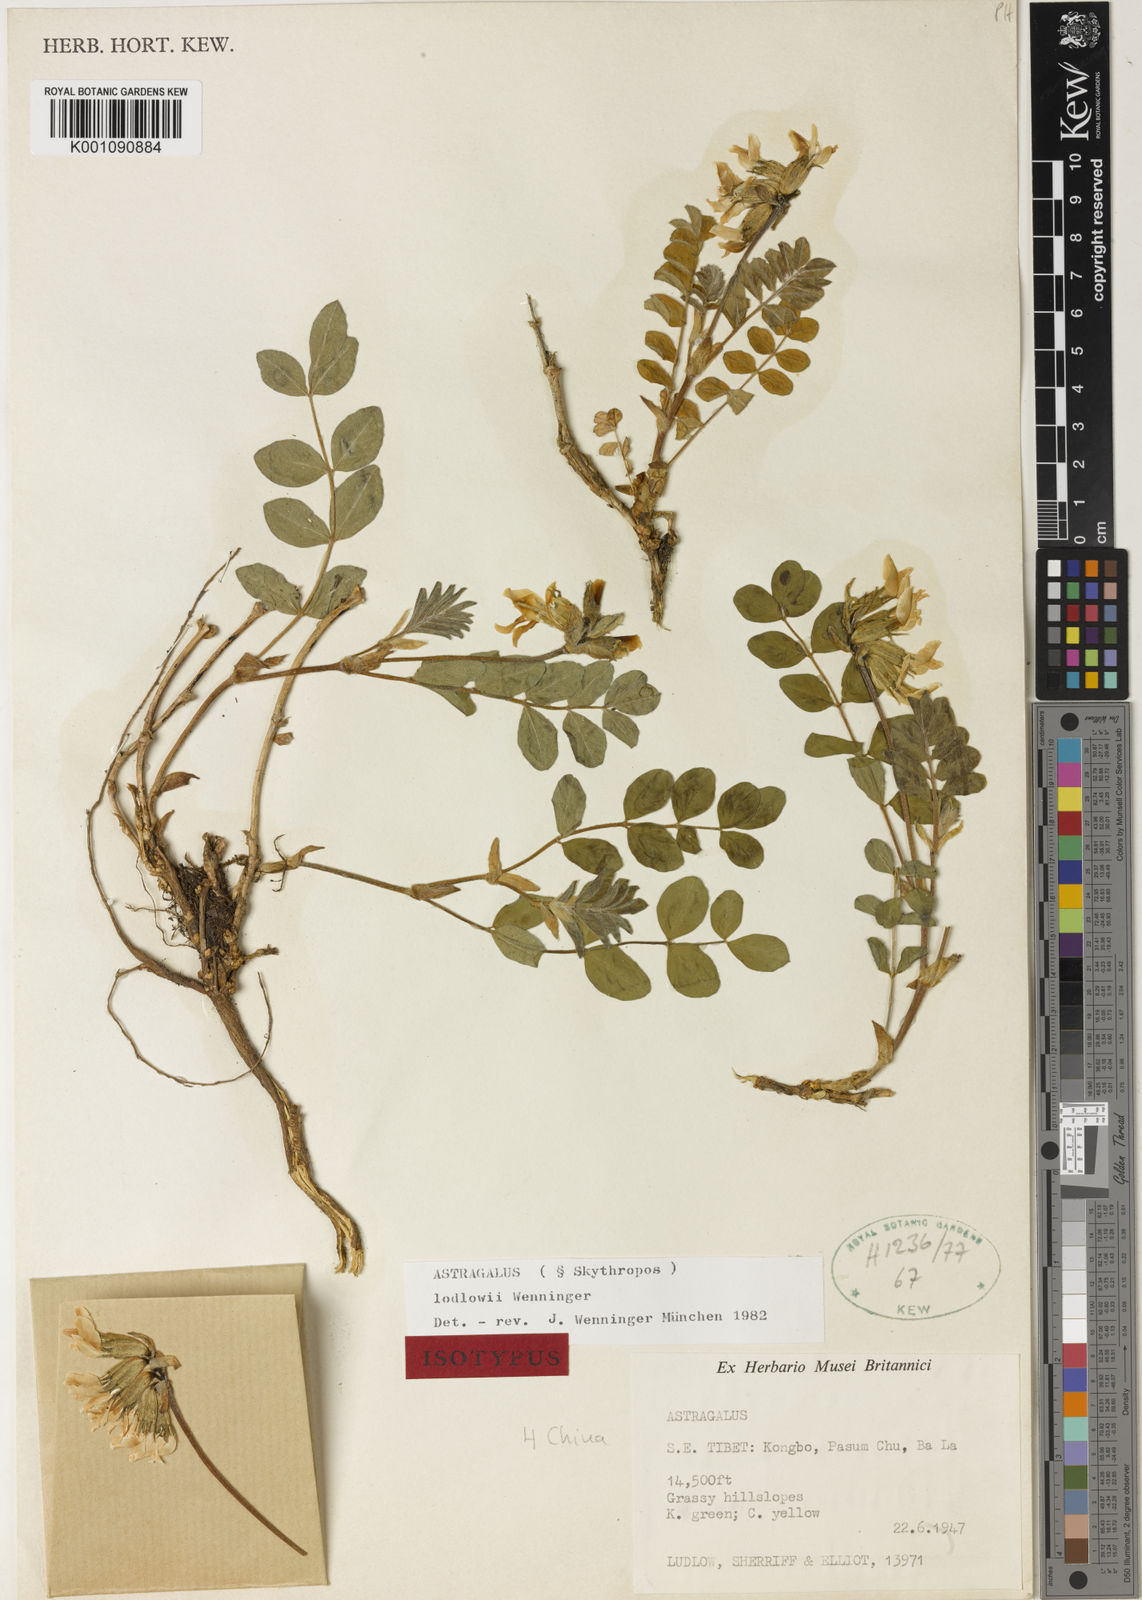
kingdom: Plantae
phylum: Tracheophyta
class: Magnoliopsida
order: Fabales
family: Fabaceae
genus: Astragalus
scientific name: Astragalus
